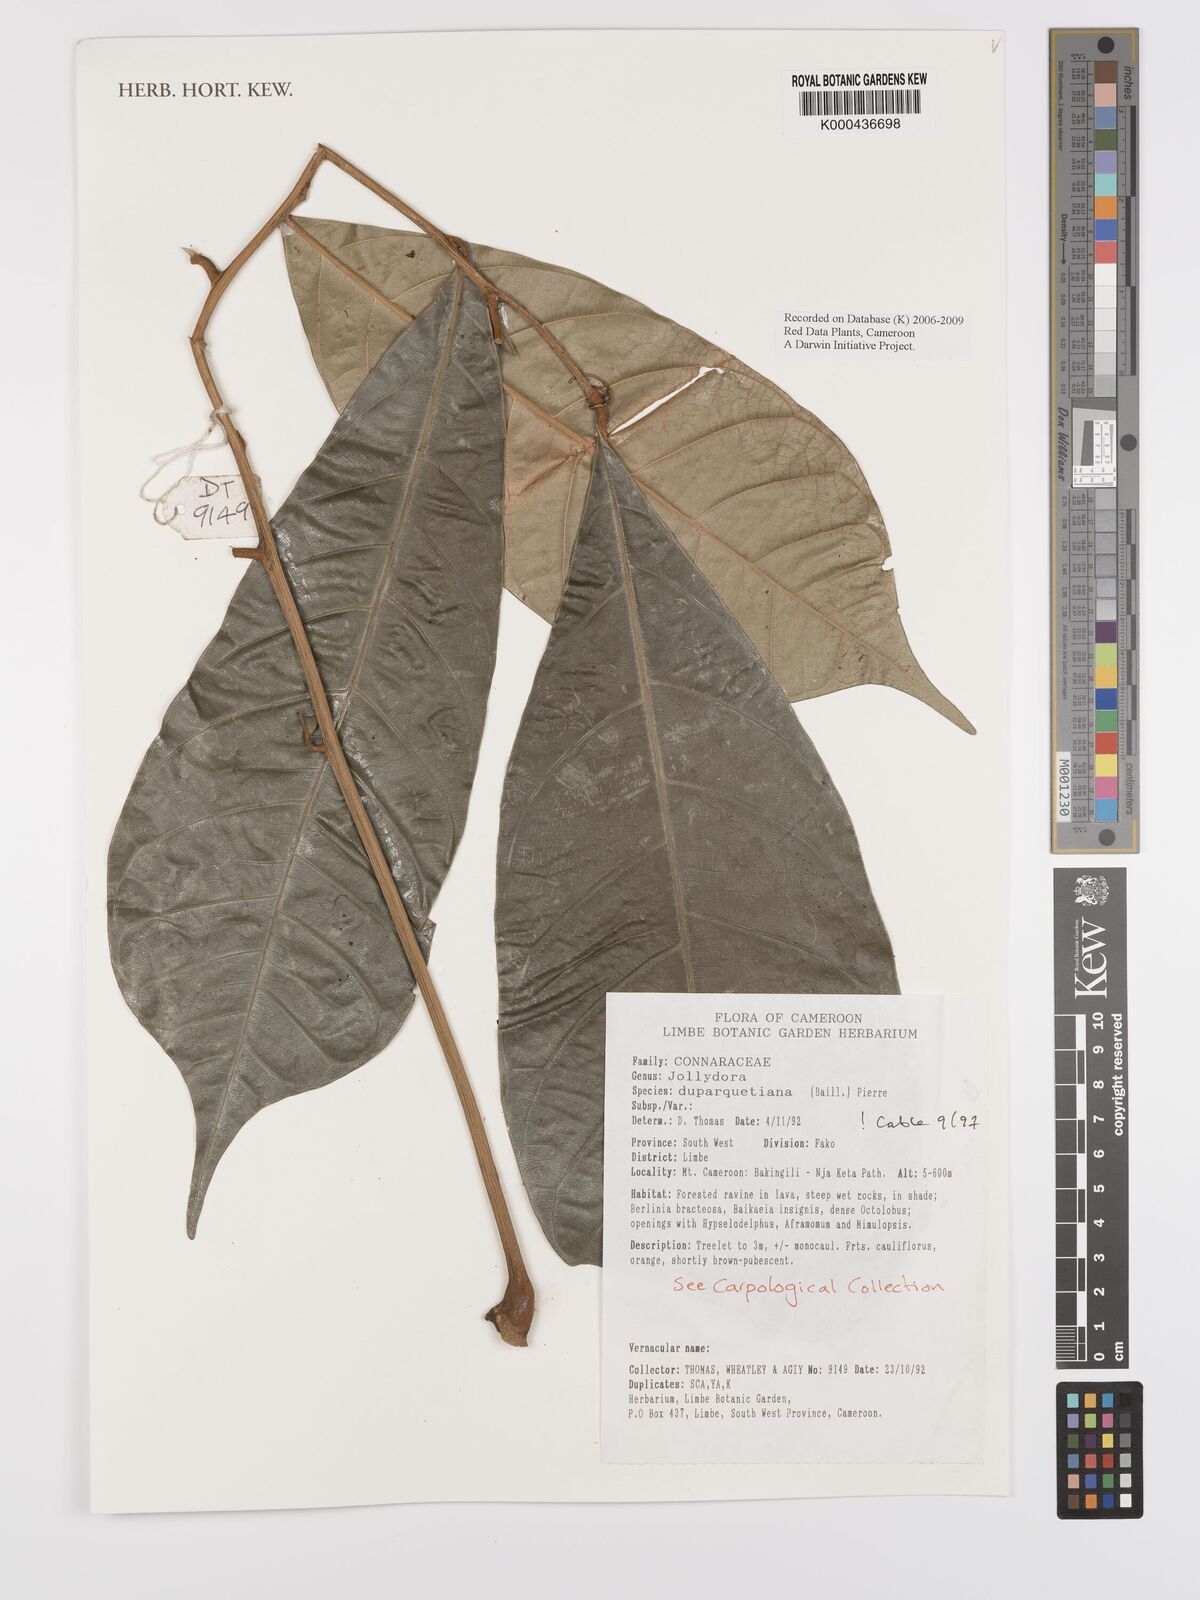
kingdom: Plantae
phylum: Tracheophyta
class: Magnoliopsida
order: Oxalidales
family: Connaraceae
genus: Jollydora
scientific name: Jollydora duparquetiana
